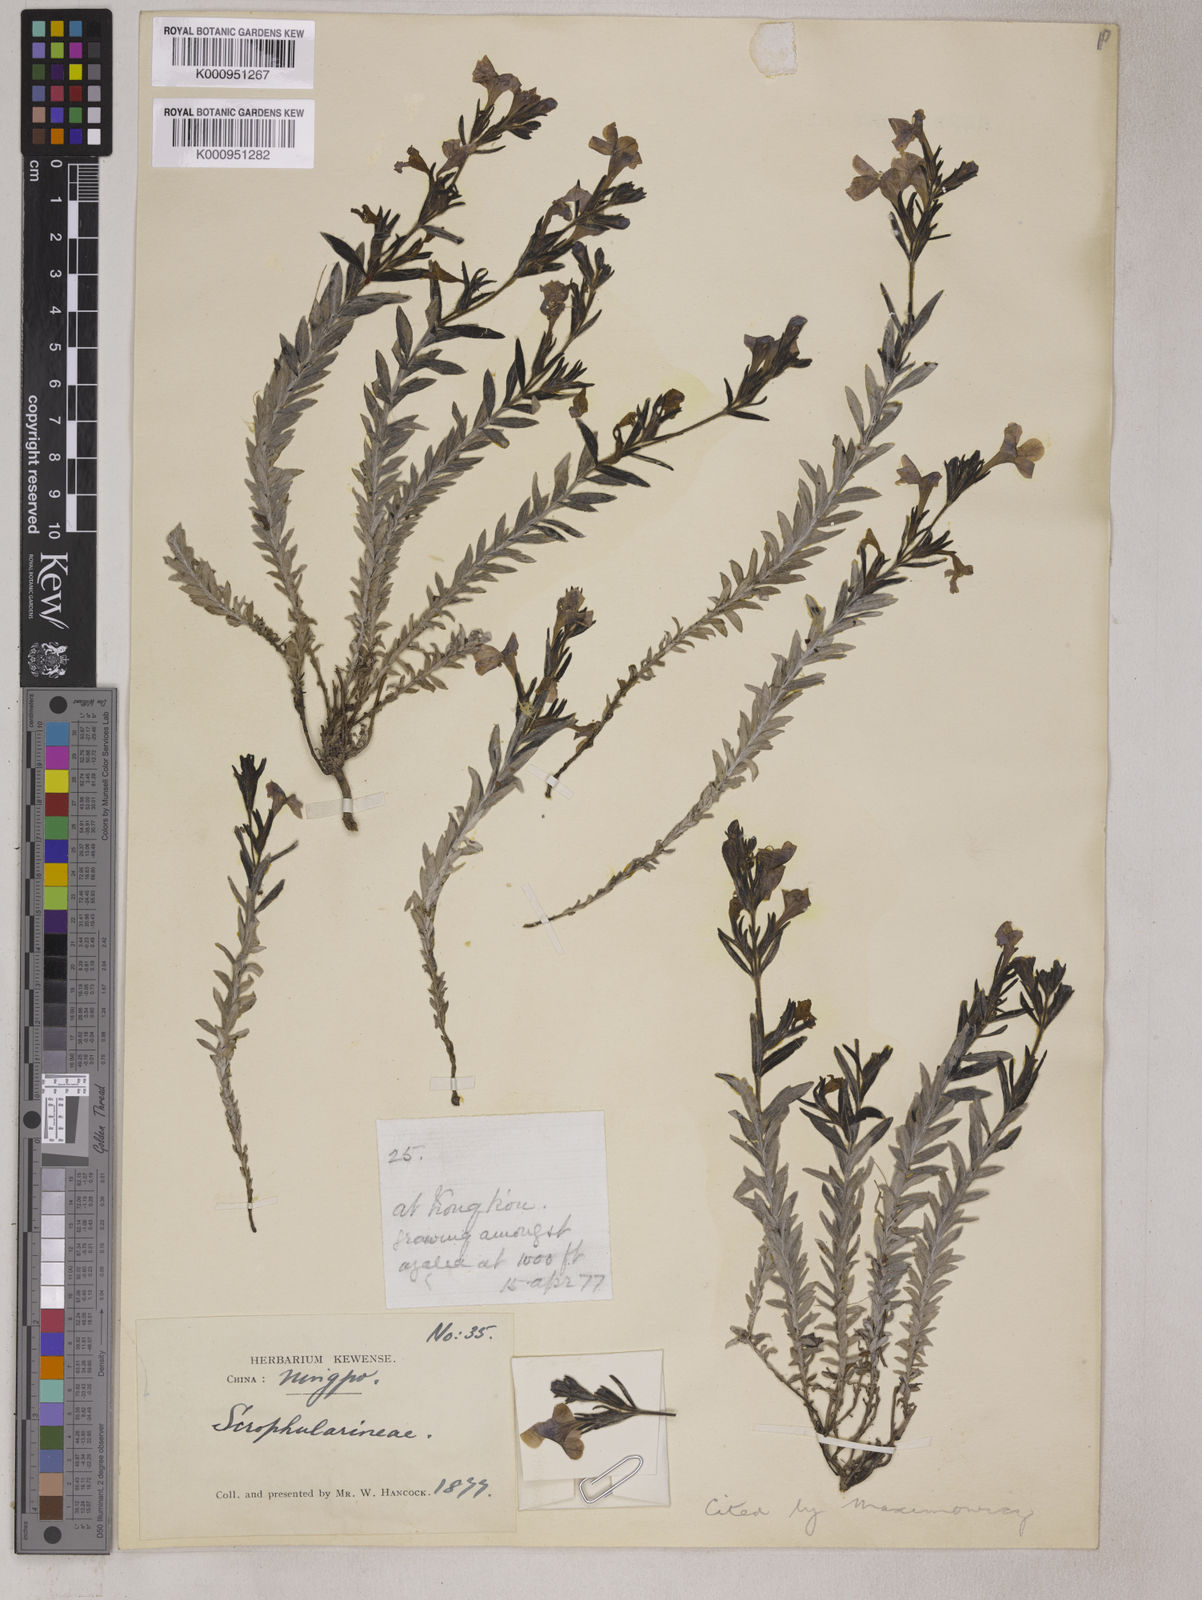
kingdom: Plantae
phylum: Tracheophyta
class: Magnoliopsida
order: Lamiales
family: Orobanchaceae
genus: Bungea
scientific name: Bungea
